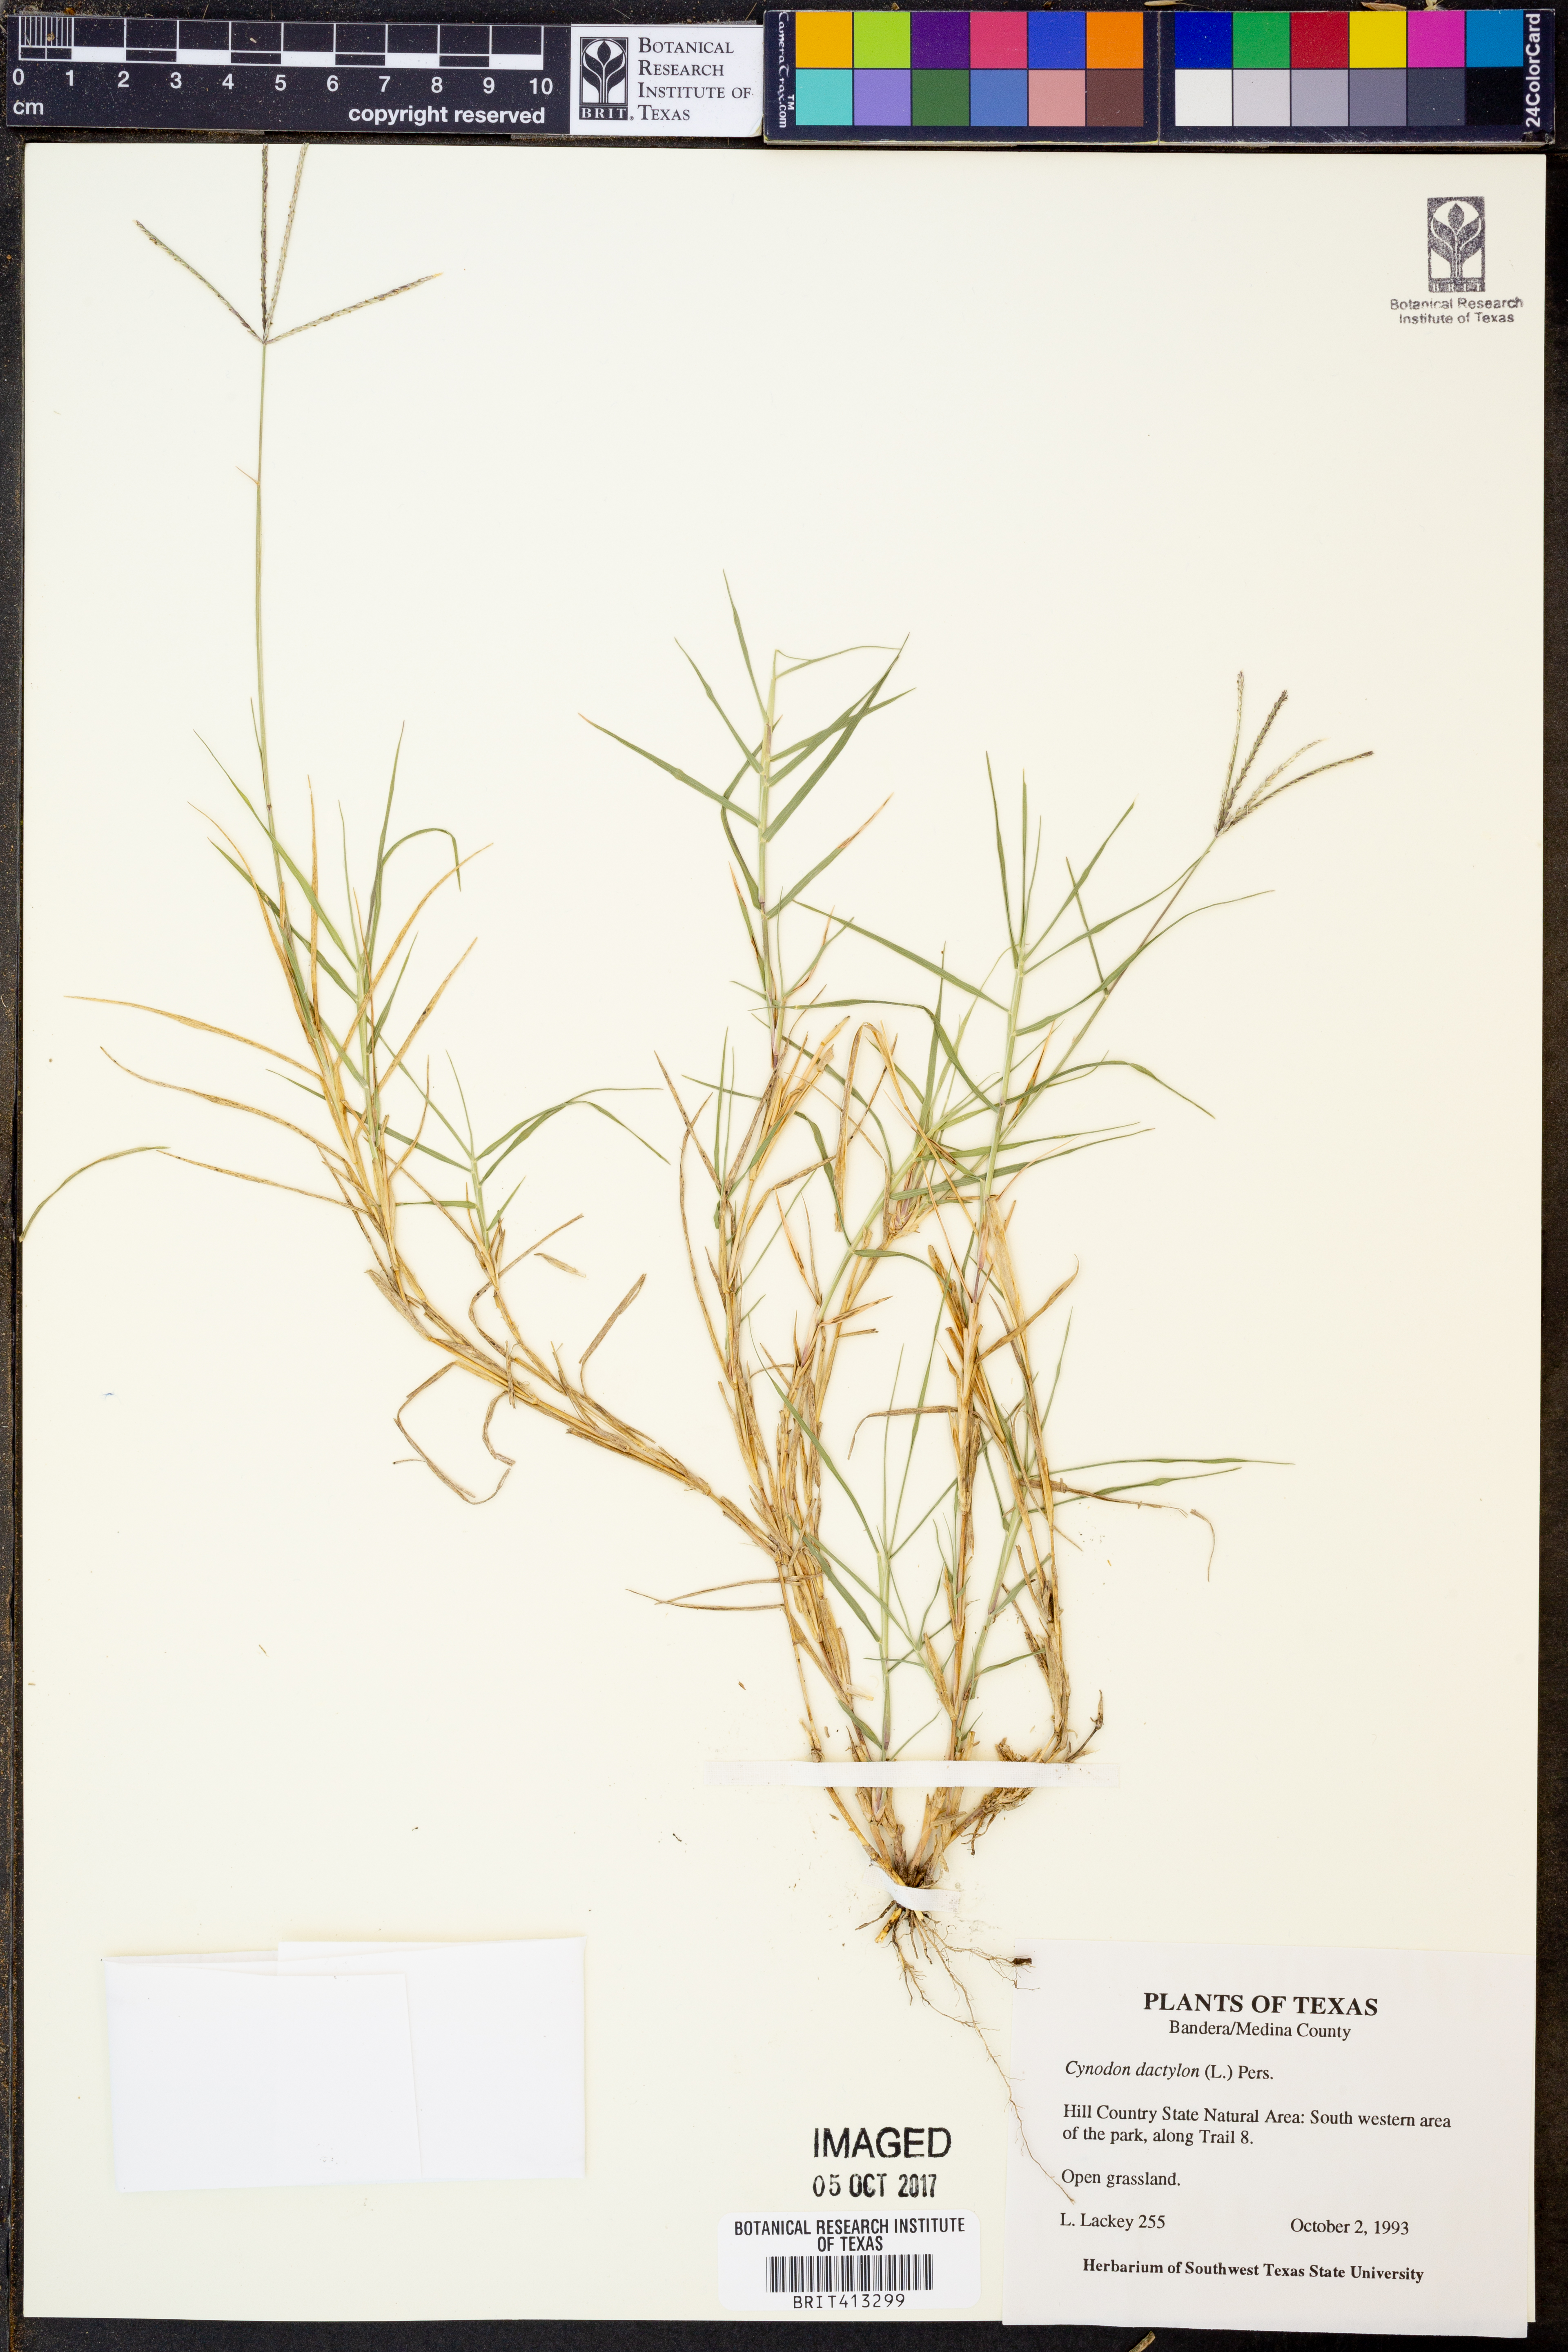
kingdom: Plantae
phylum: Tracheophyta
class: Liliopsida
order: Poales
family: Poaceae
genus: Cynodon
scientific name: Cynodon dactylon
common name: Bermuda grass
